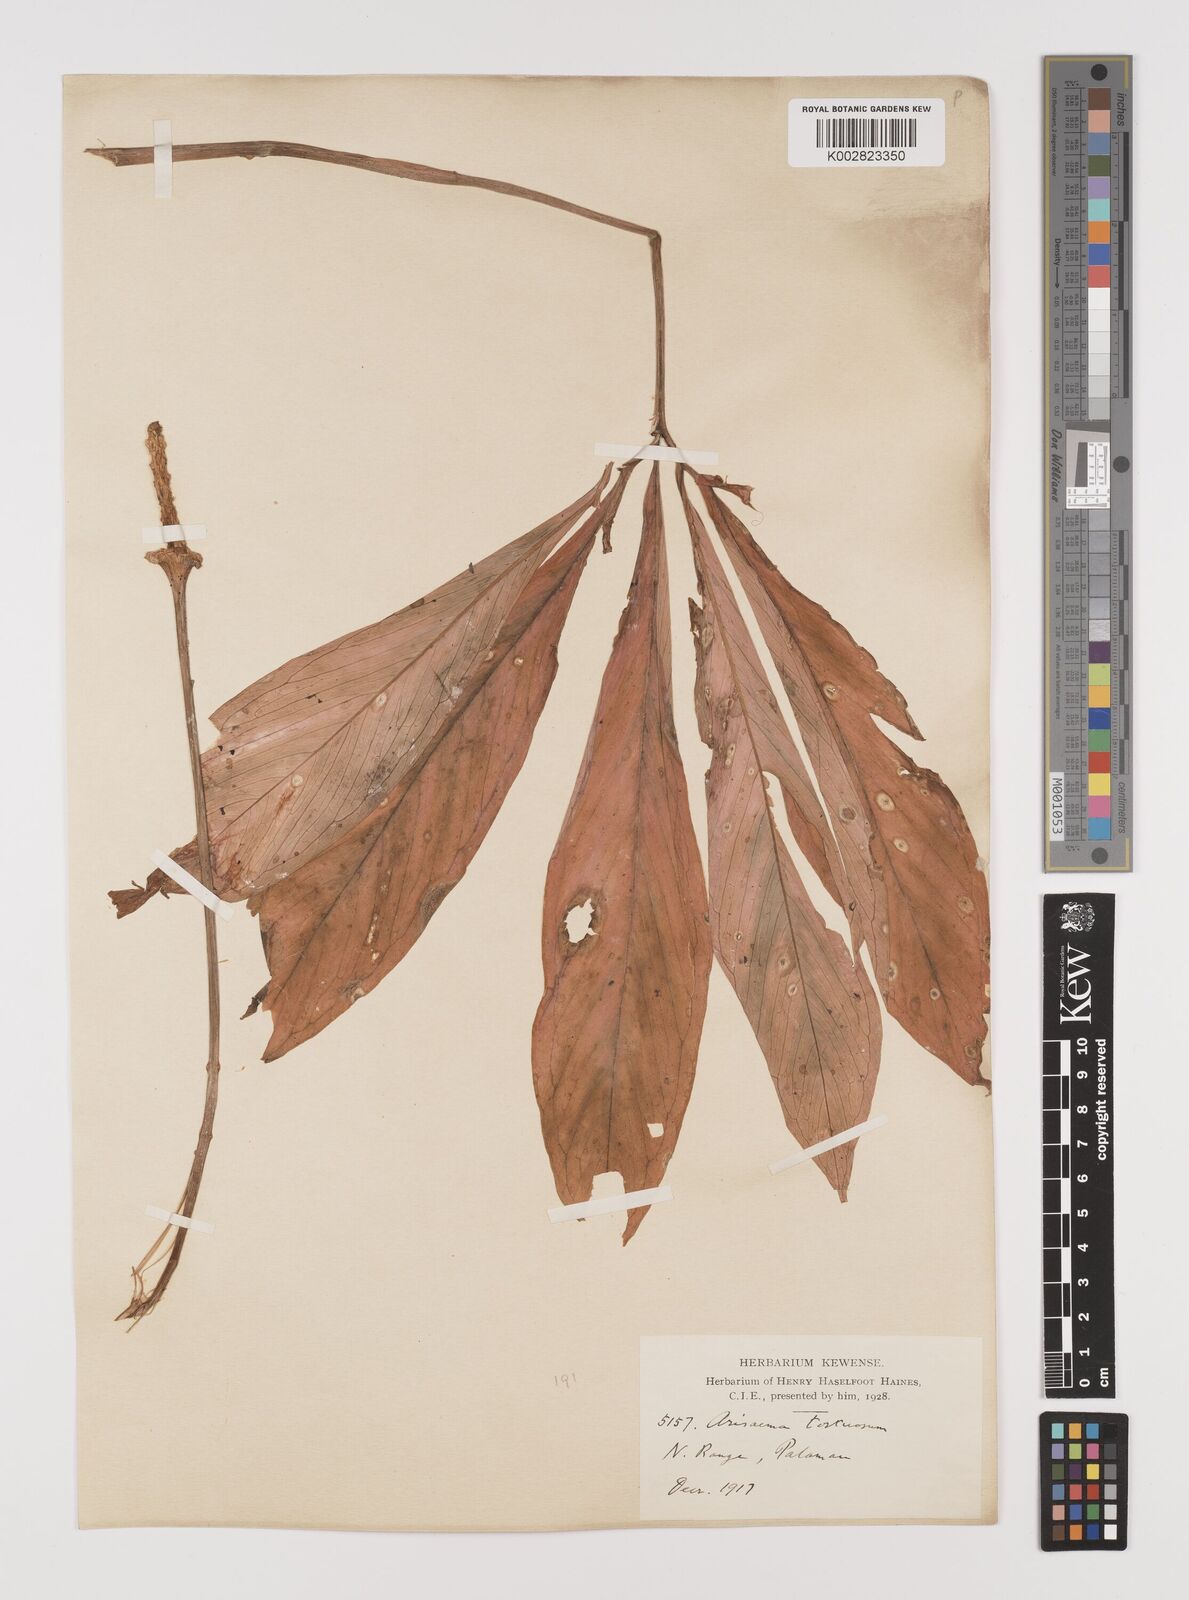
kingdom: Plantae
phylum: Tracheophyta
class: Liliopsida
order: Alismatales
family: Araceae
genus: Arisaema
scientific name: Arisaema tortuosum
